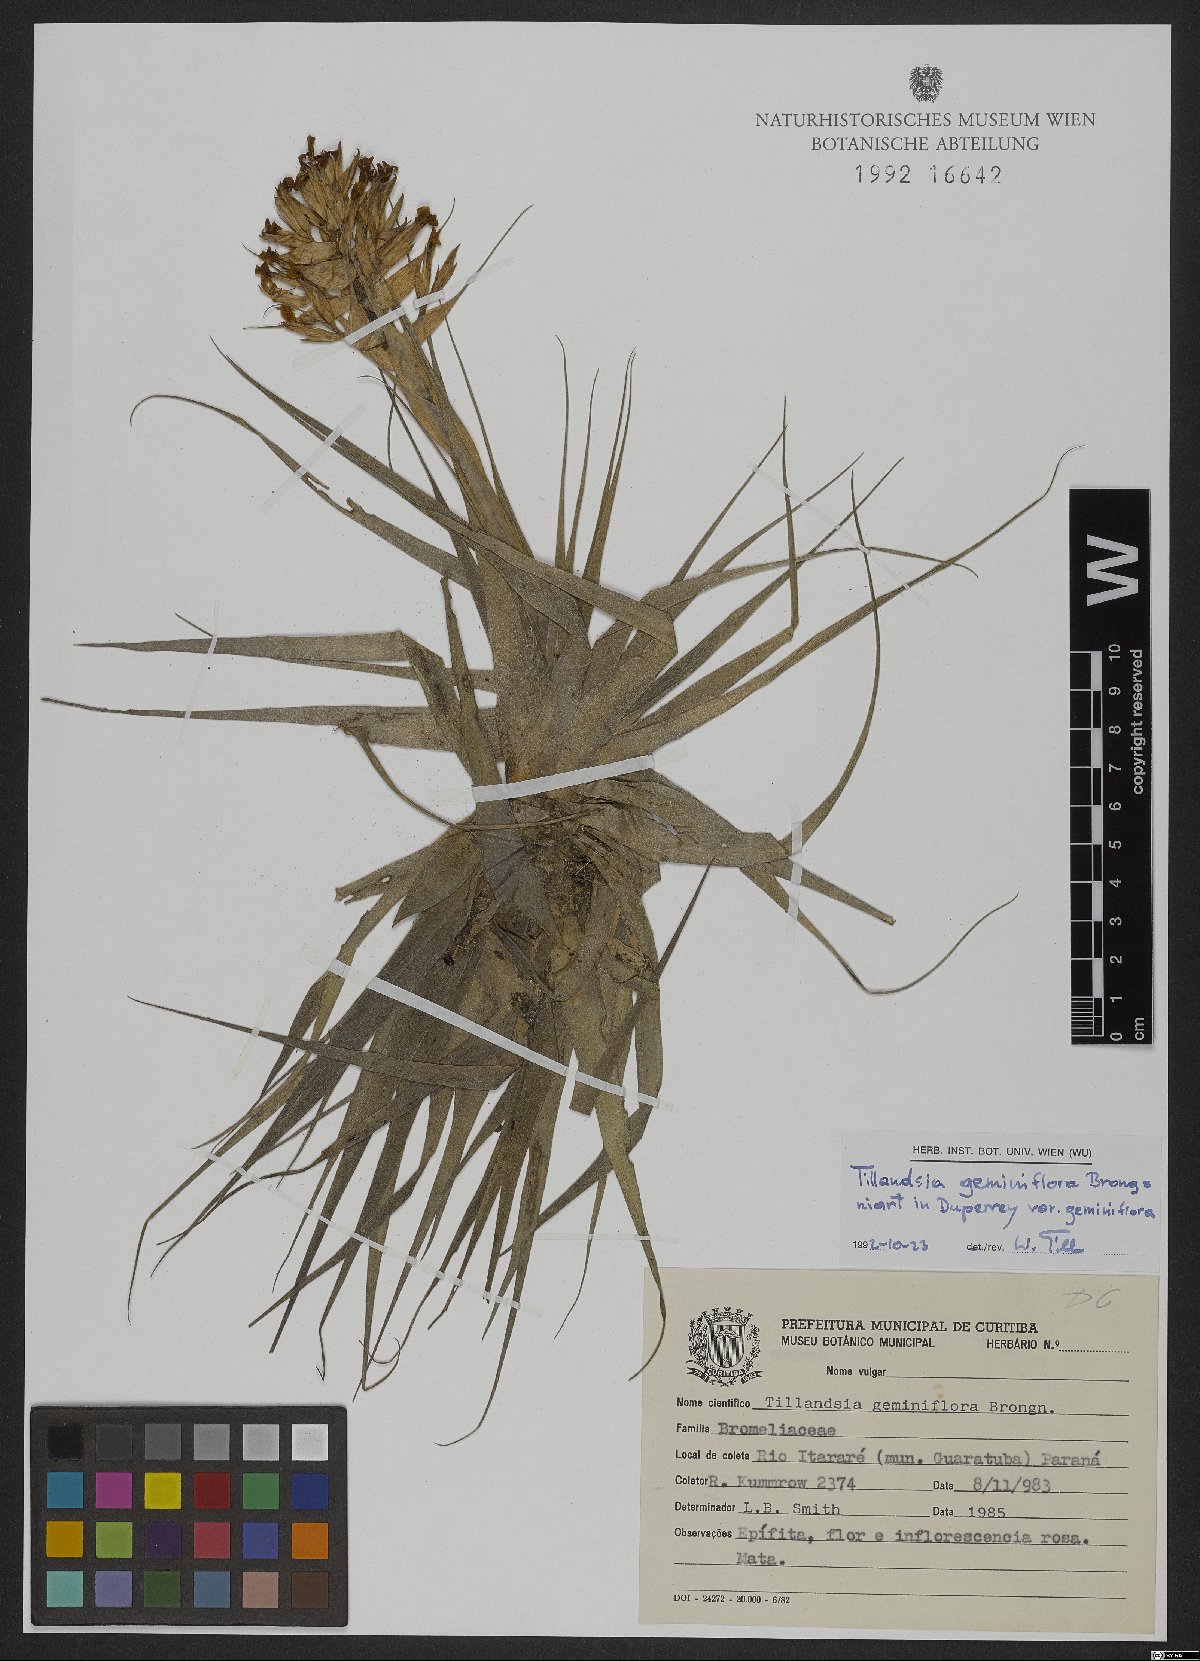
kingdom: Plantae
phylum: Tracheophyta
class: Liliopsida
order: Poales
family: Bromeliaceae
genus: Tillandsia
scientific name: Tillandsia geminiflora
